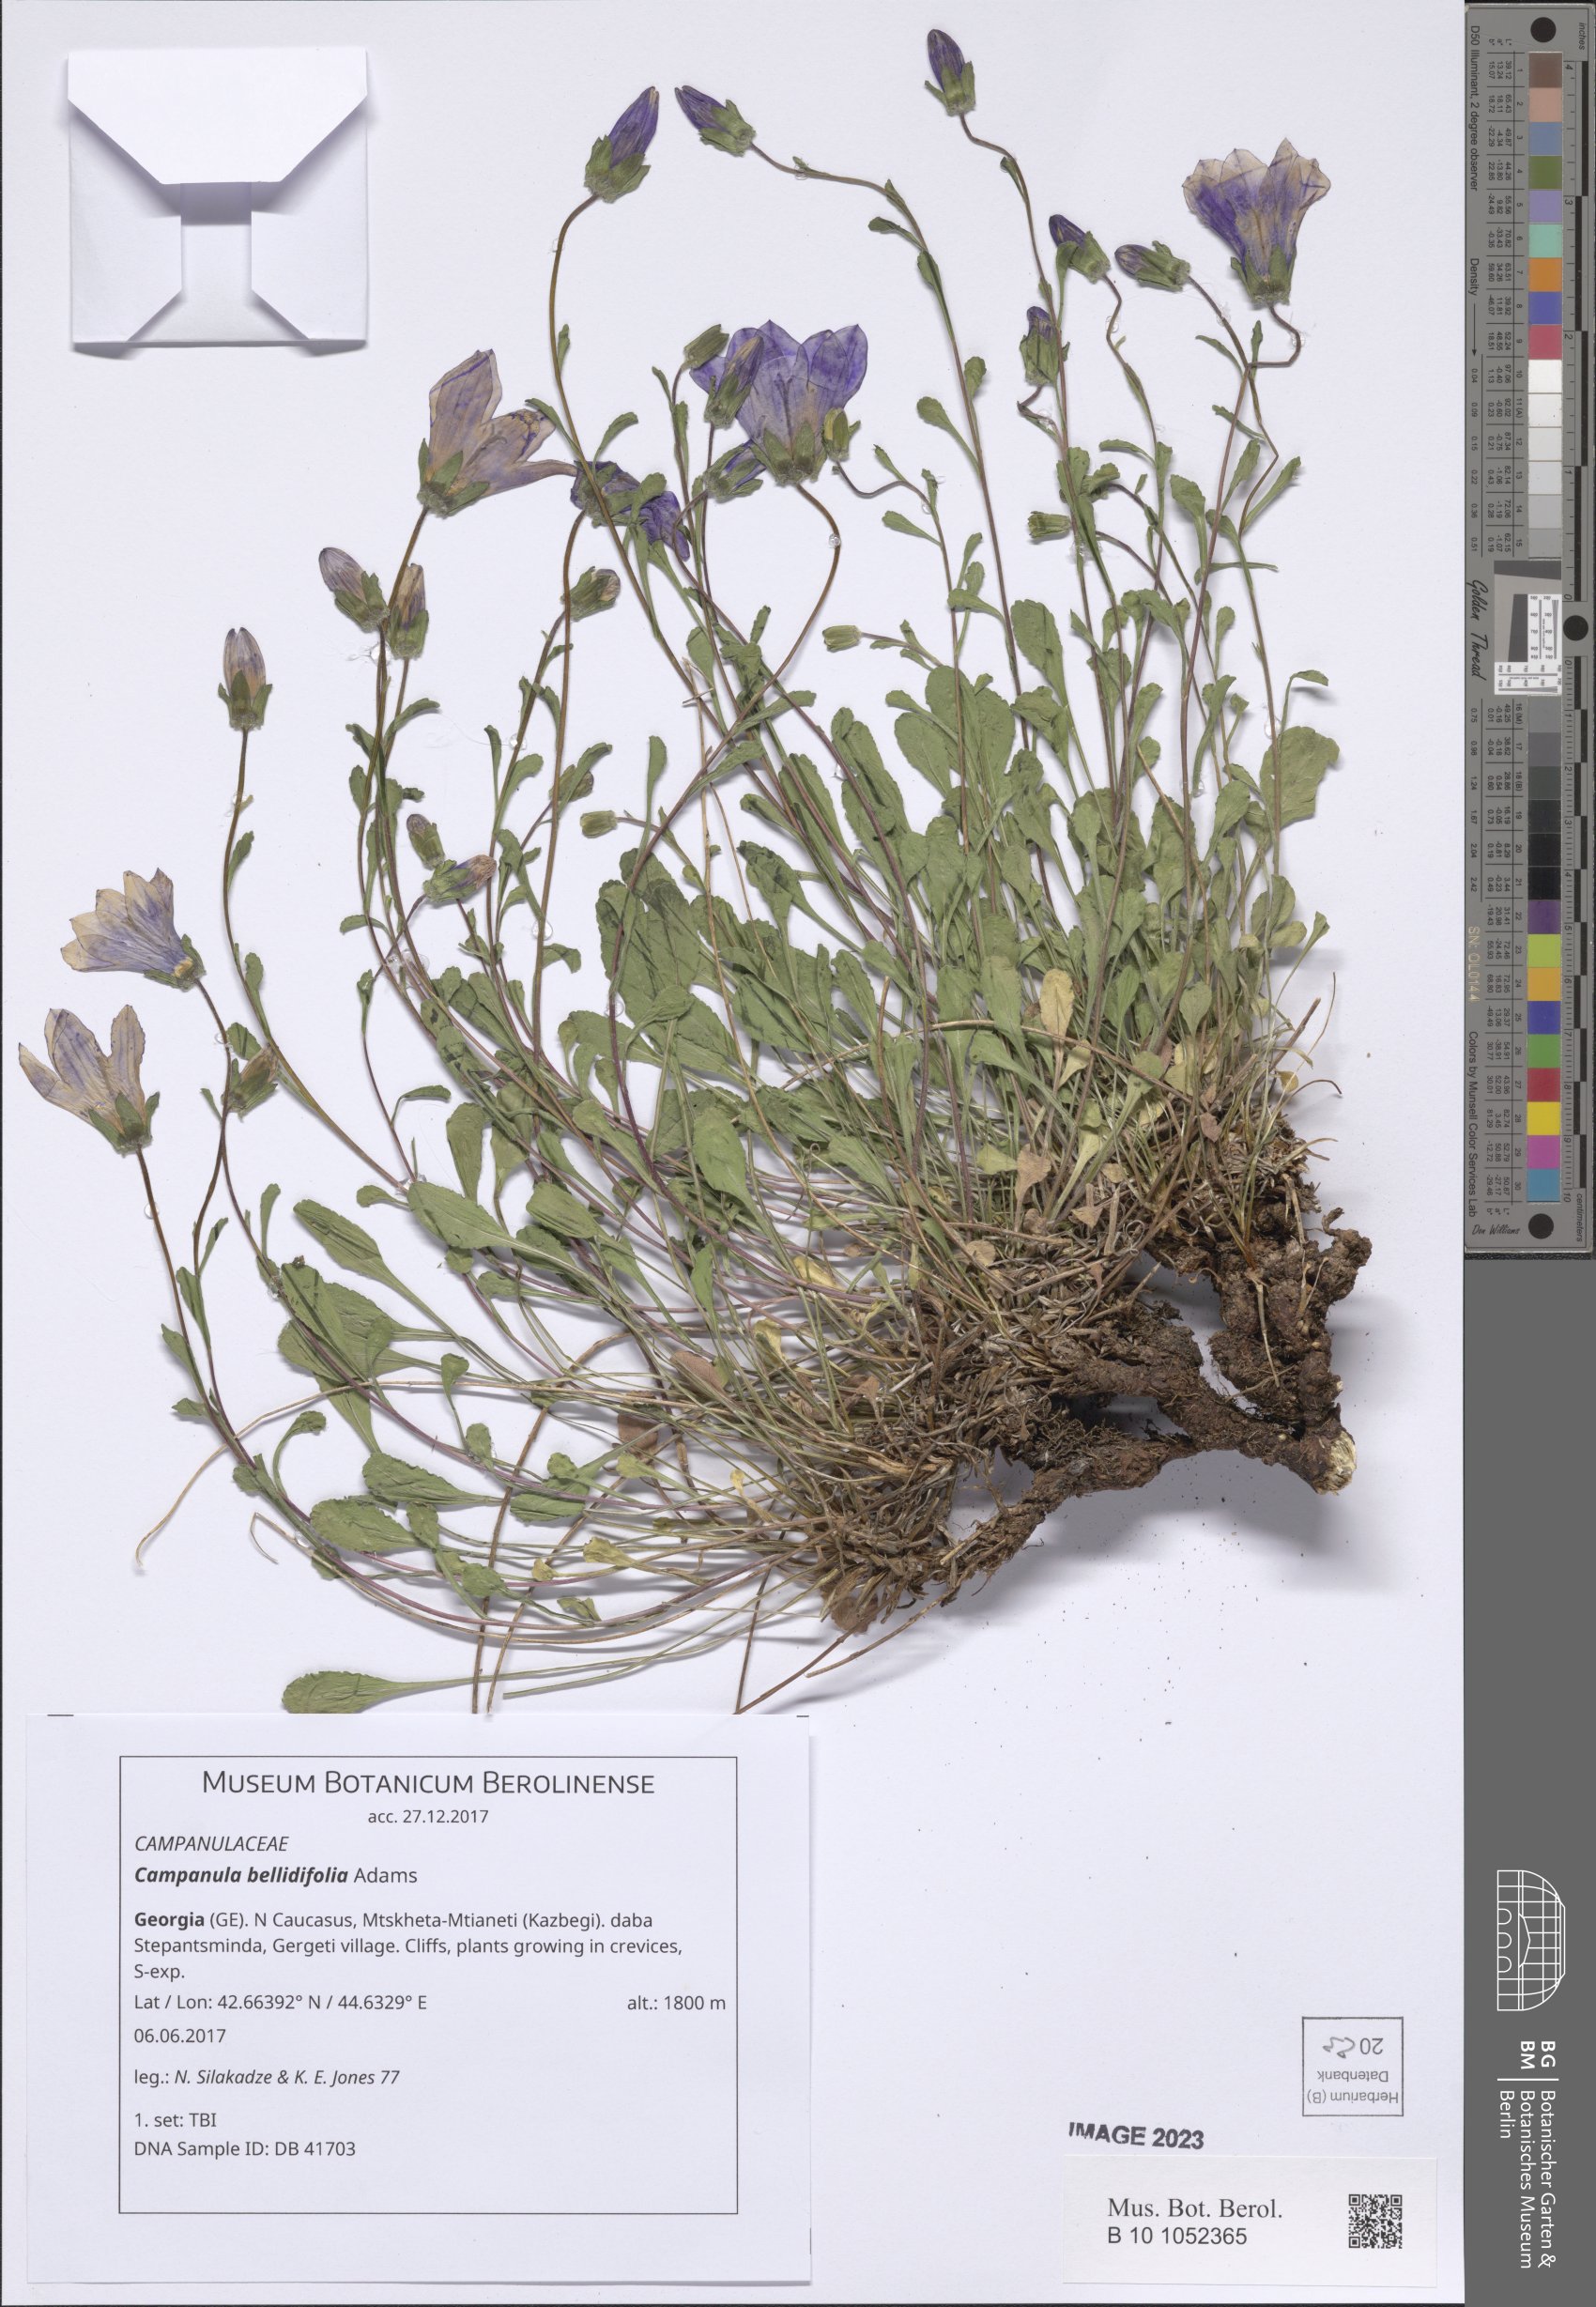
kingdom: Plantae
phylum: Tracheophyta
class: Magnoliopsida
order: Asterales
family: Campanulaceae
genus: Campanula
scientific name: Campanula bellidifolia
